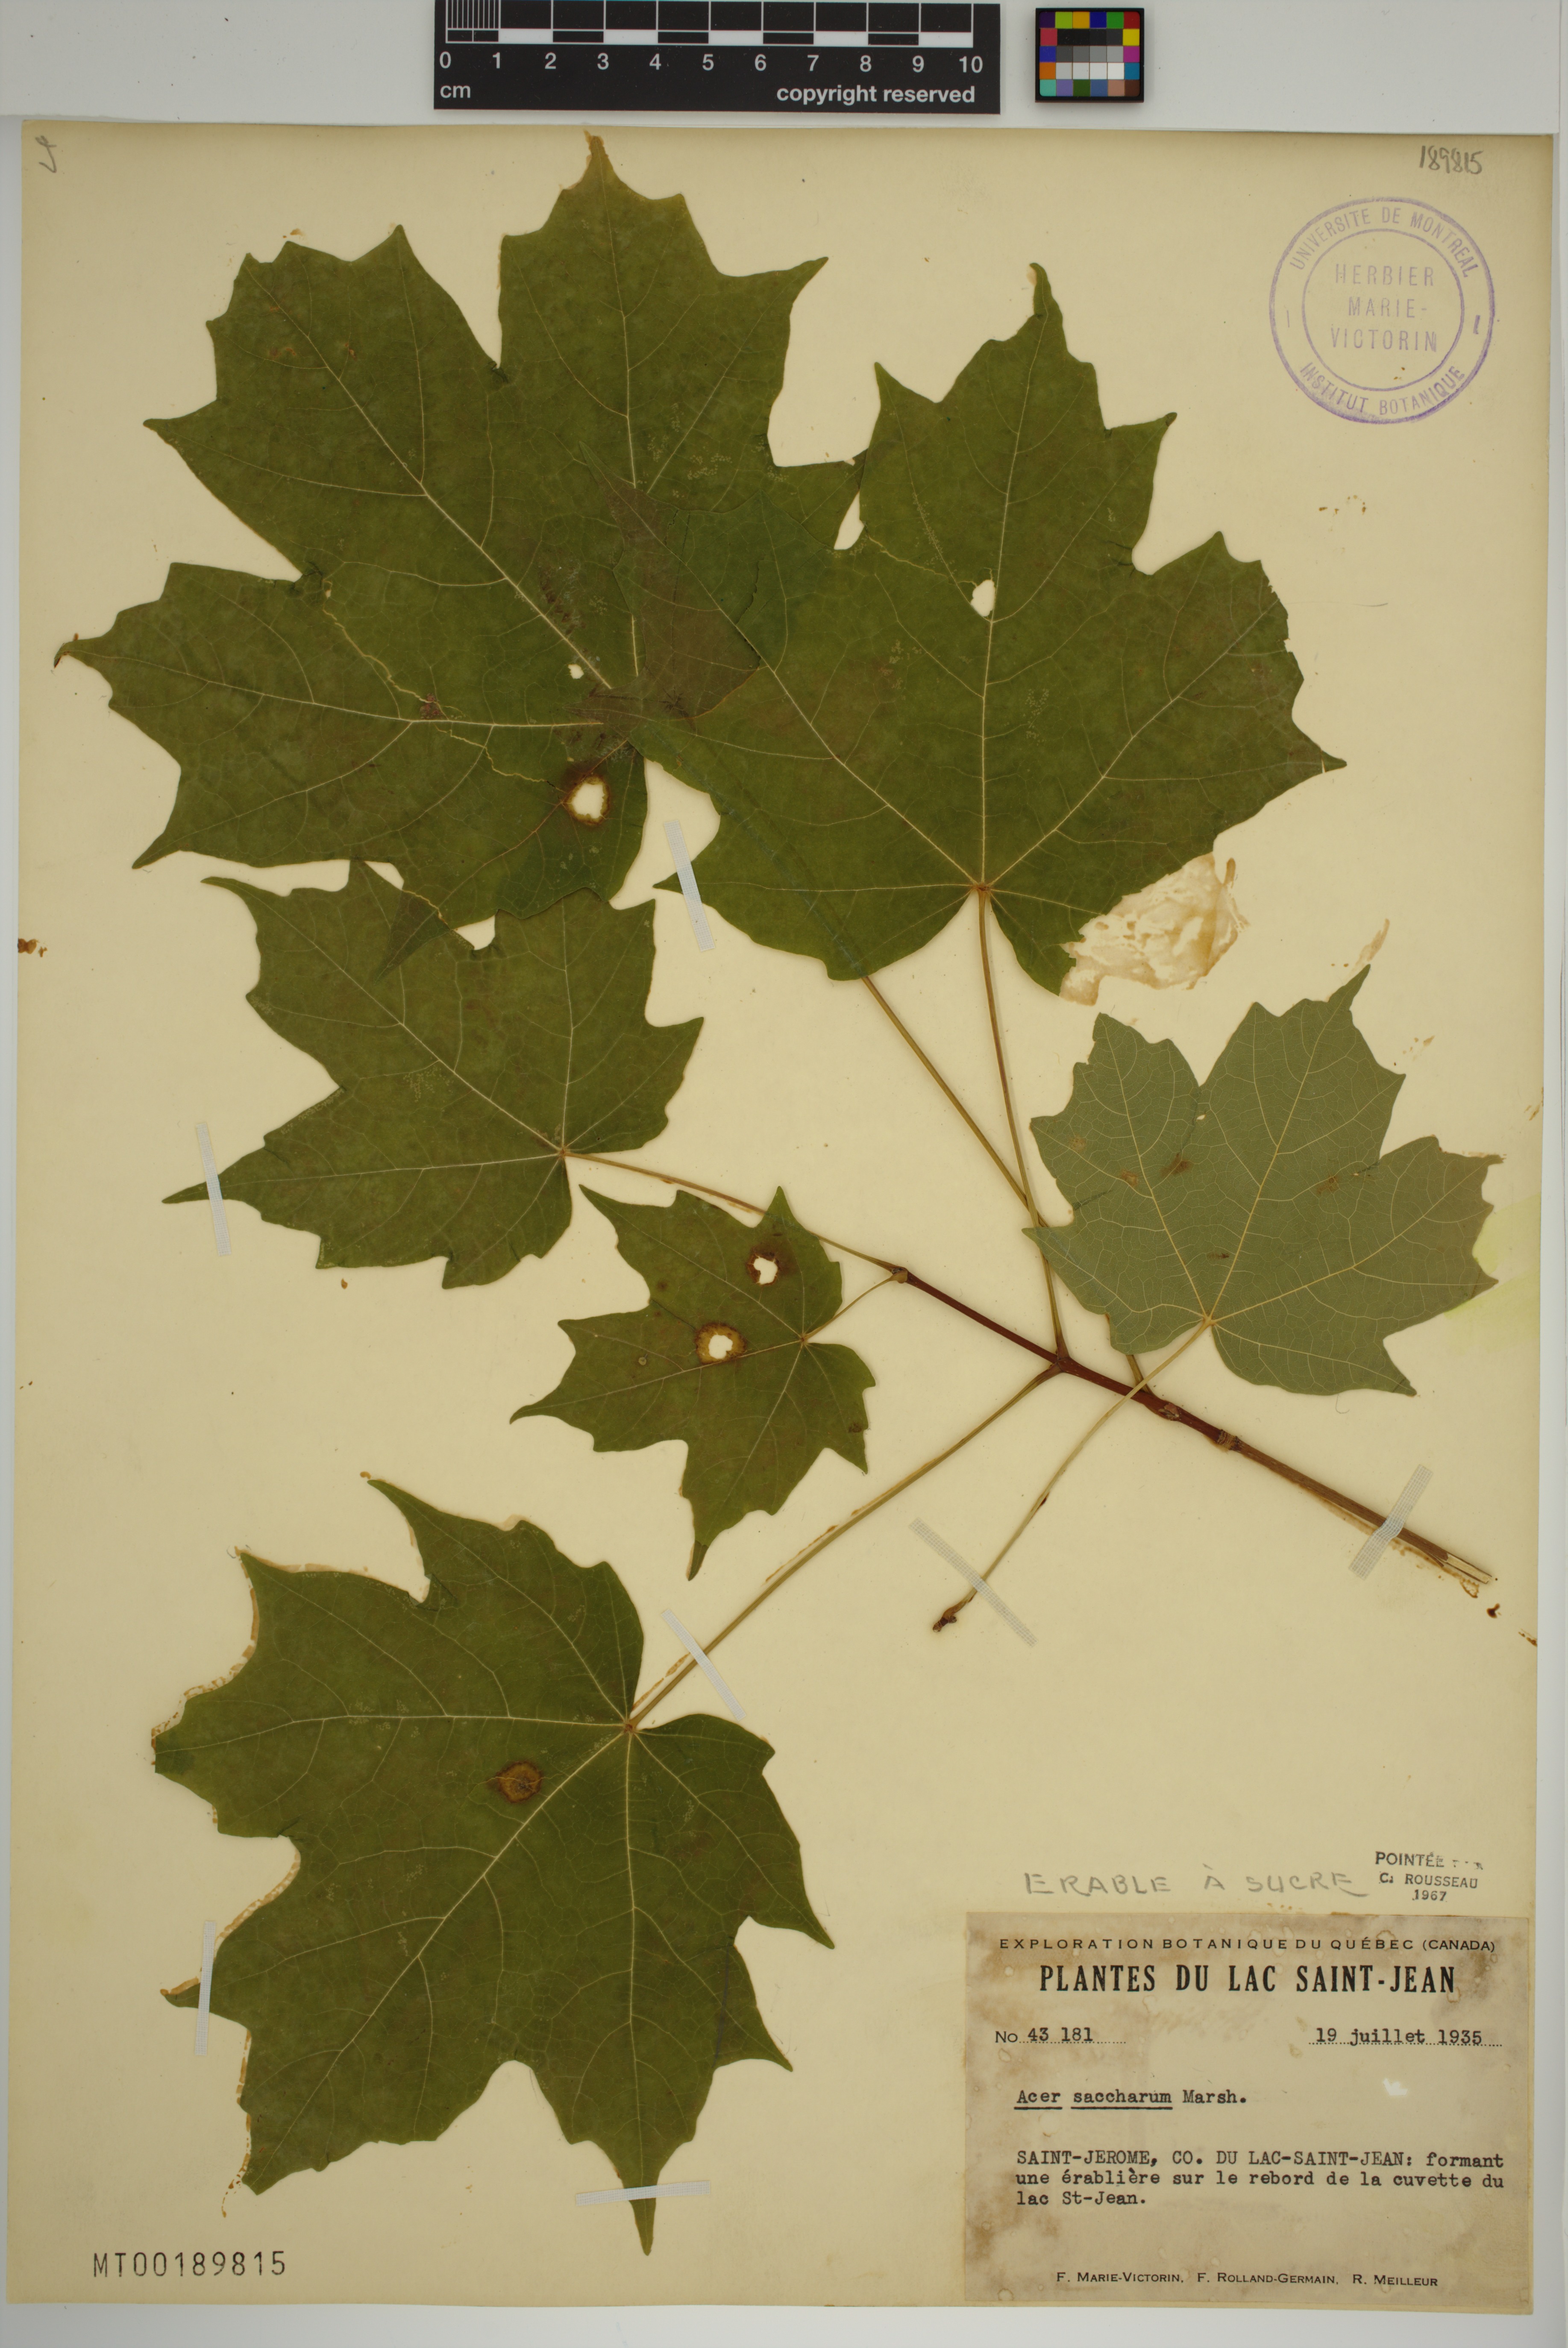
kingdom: Plantae
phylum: Tracheophyta
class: Magnoliopsida
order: Sapindales
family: Sapindaceae
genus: Acer
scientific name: Acer saccharum
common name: Sugar maple
